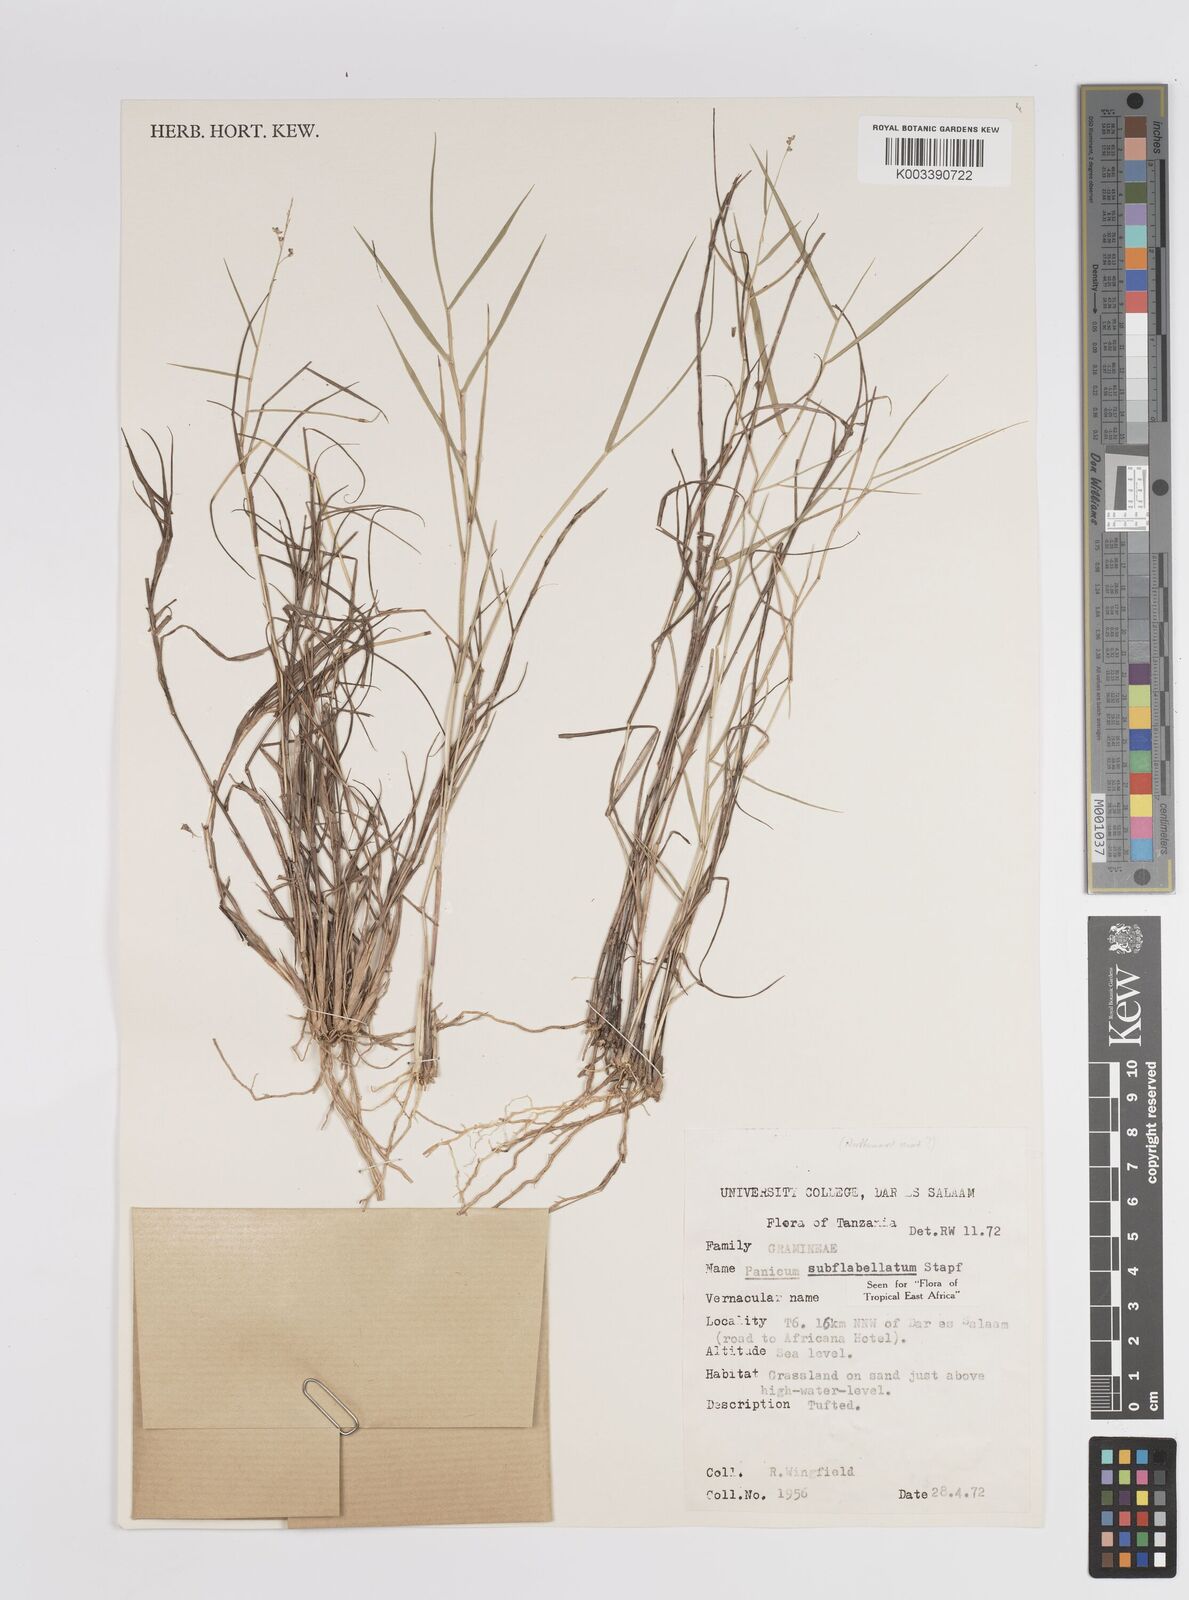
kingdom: Plantae
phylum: Tracheophyta
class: Liliopsida
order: Poales
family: Poaceae
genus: Panicum
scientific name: Panicum subflabellatum
